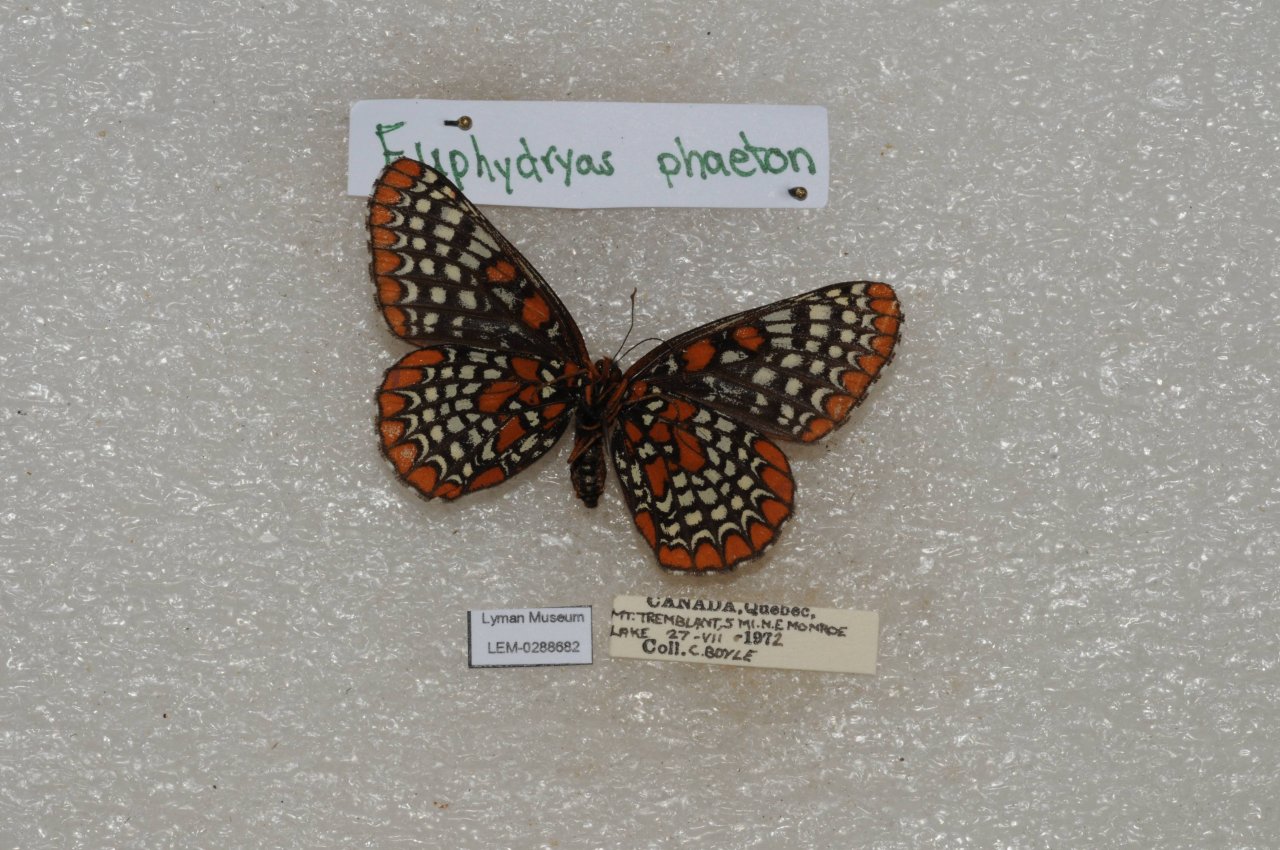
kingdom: Animalia
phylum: Arthropoda
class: Insecta
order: Lepidoptera
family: Nymphalidae
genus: Euphydryas
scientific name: Euphydryas phaeton
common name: Baltimore Checkerspot
